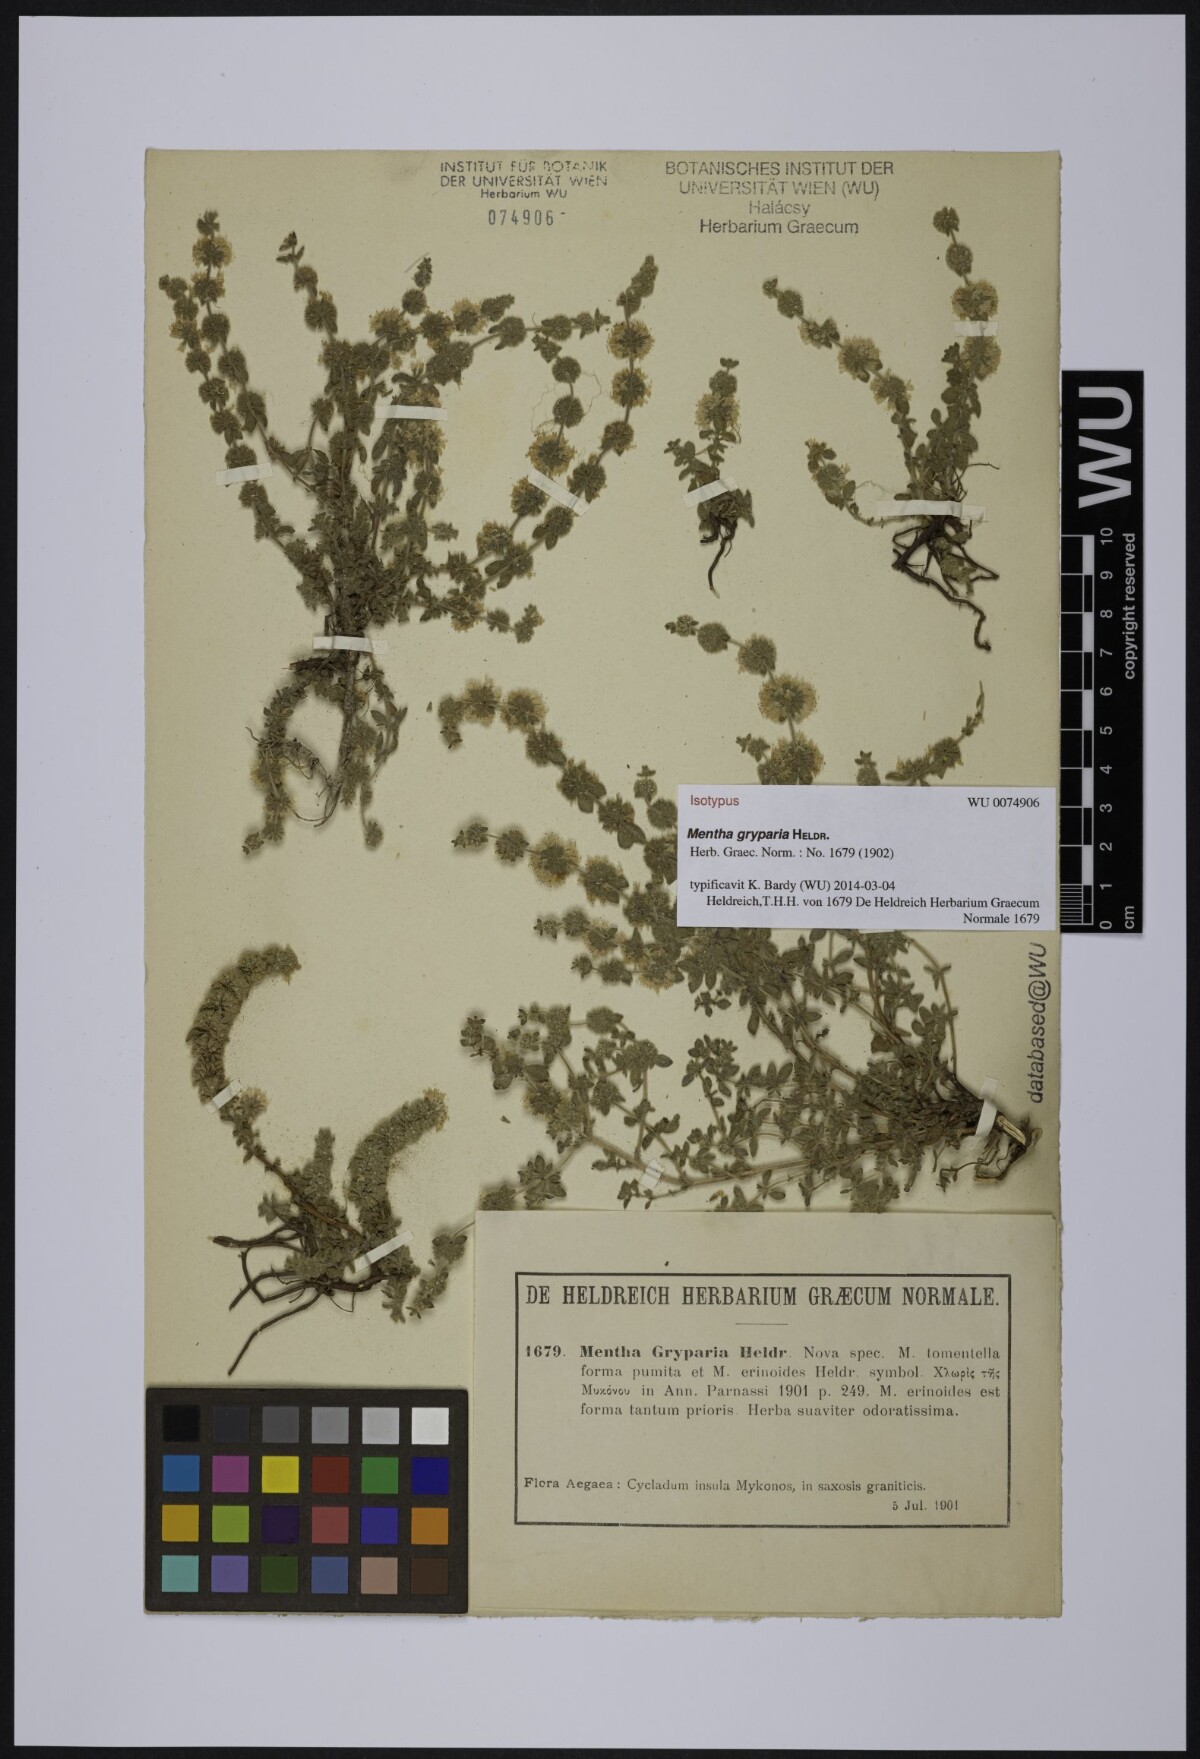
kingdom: Plantae
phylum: Tracheophyta
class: Magnoliopsida
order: Lamiales
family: Lamiaceae
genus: Mentha
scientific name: Mentha pulegium
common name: Pennyroyal
